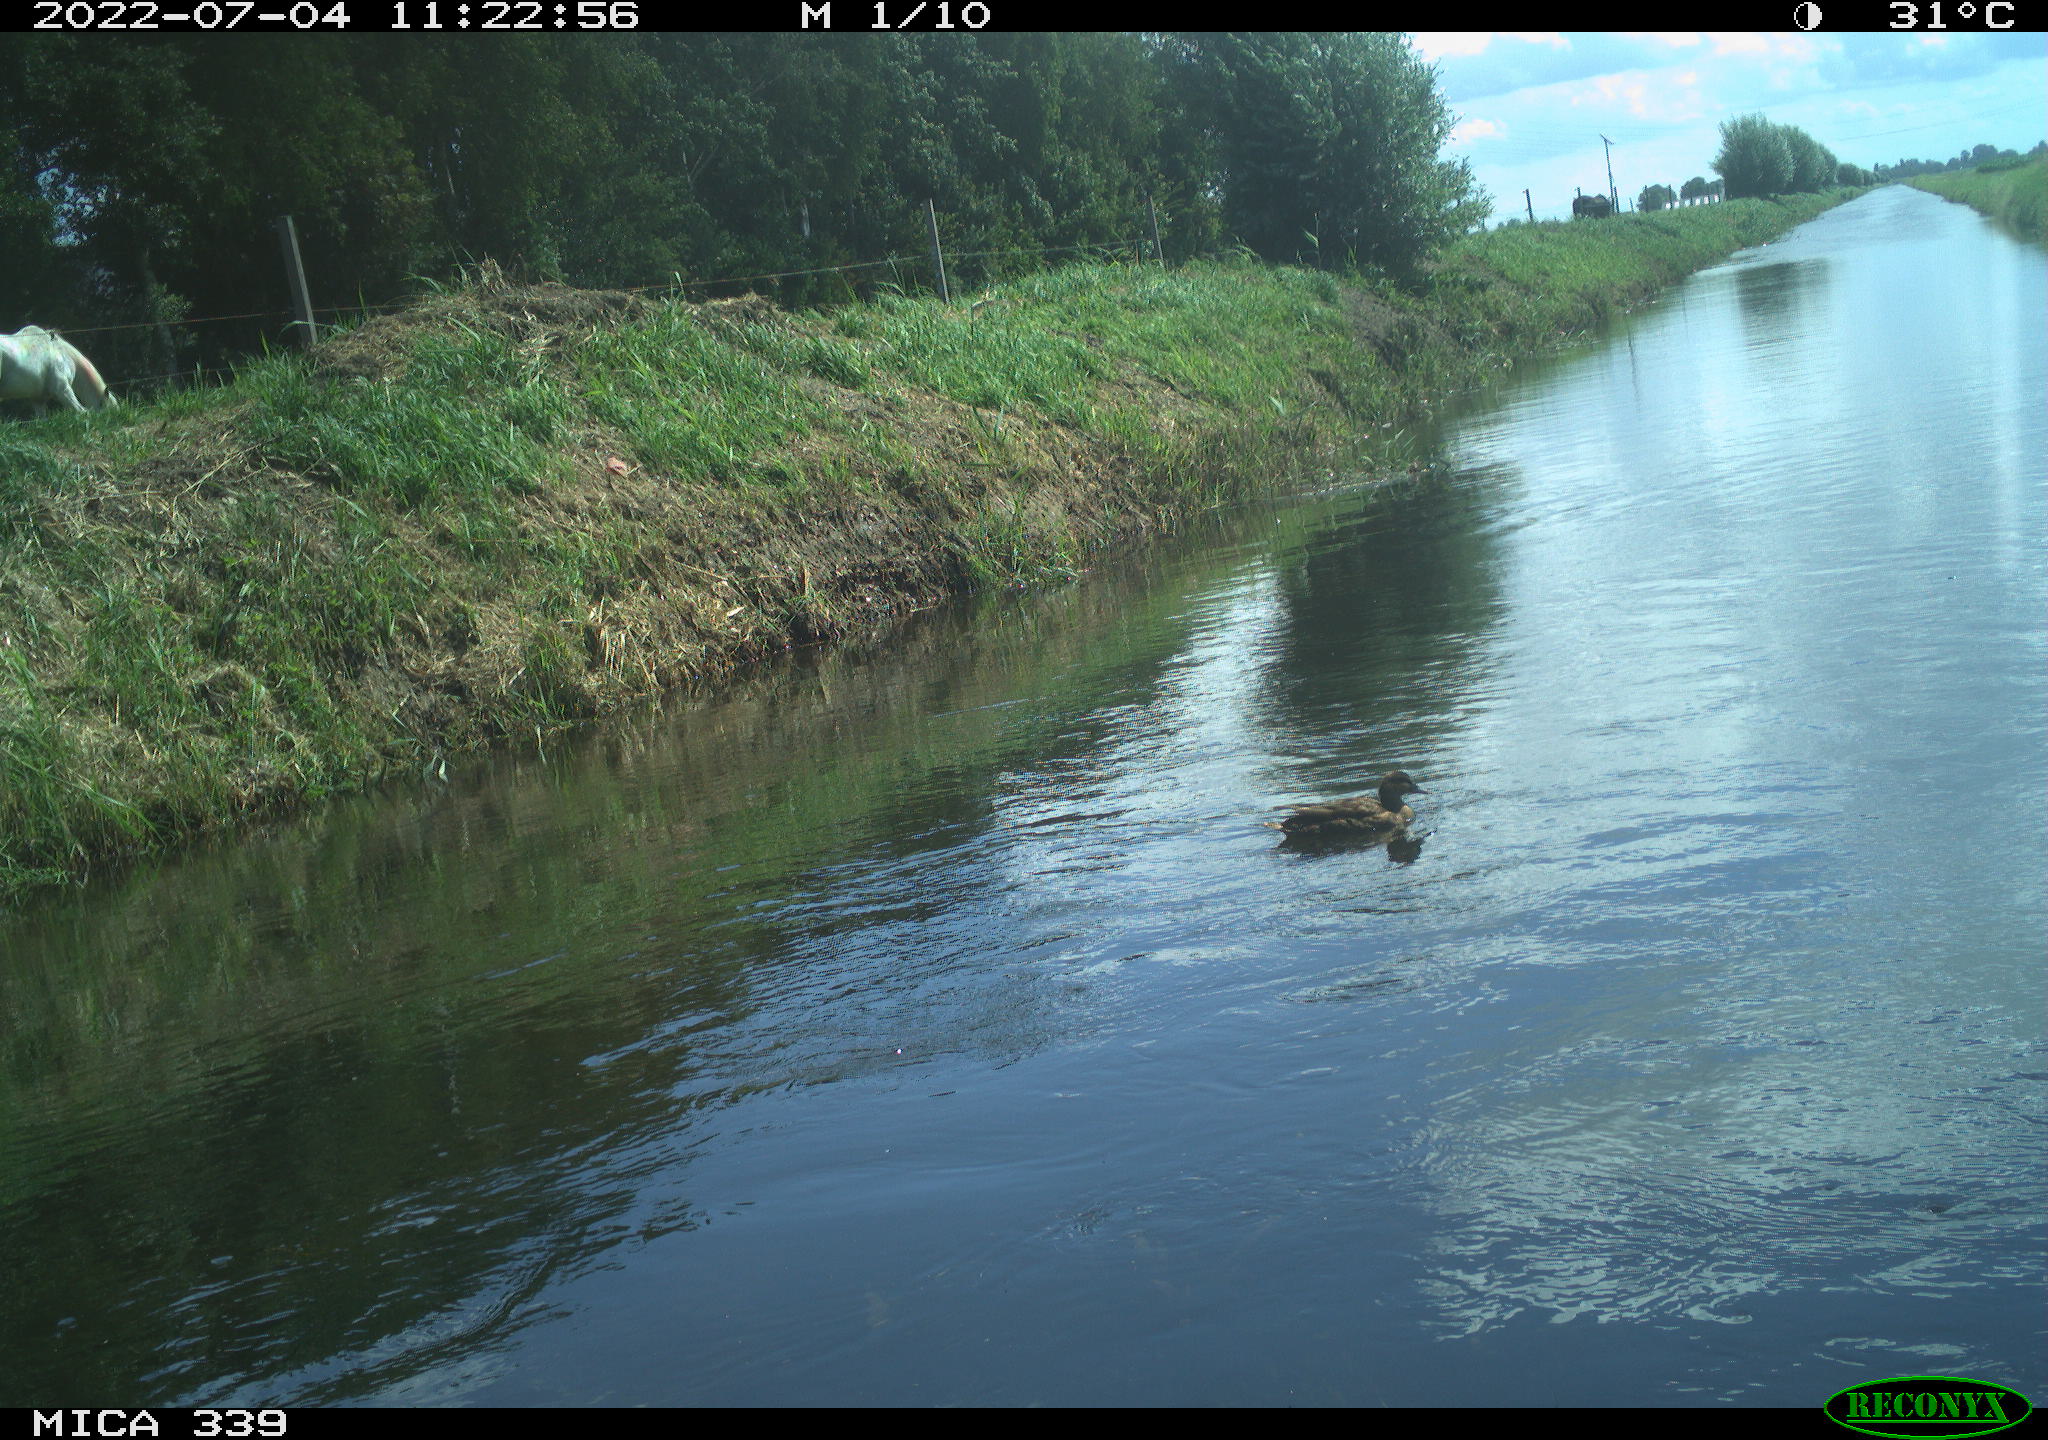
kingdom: Animalia
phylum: Chordata
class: Aves
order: Anseriformes
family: Anatidae
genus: Anas
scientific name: Anas platyrhynchos
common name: Mallard
